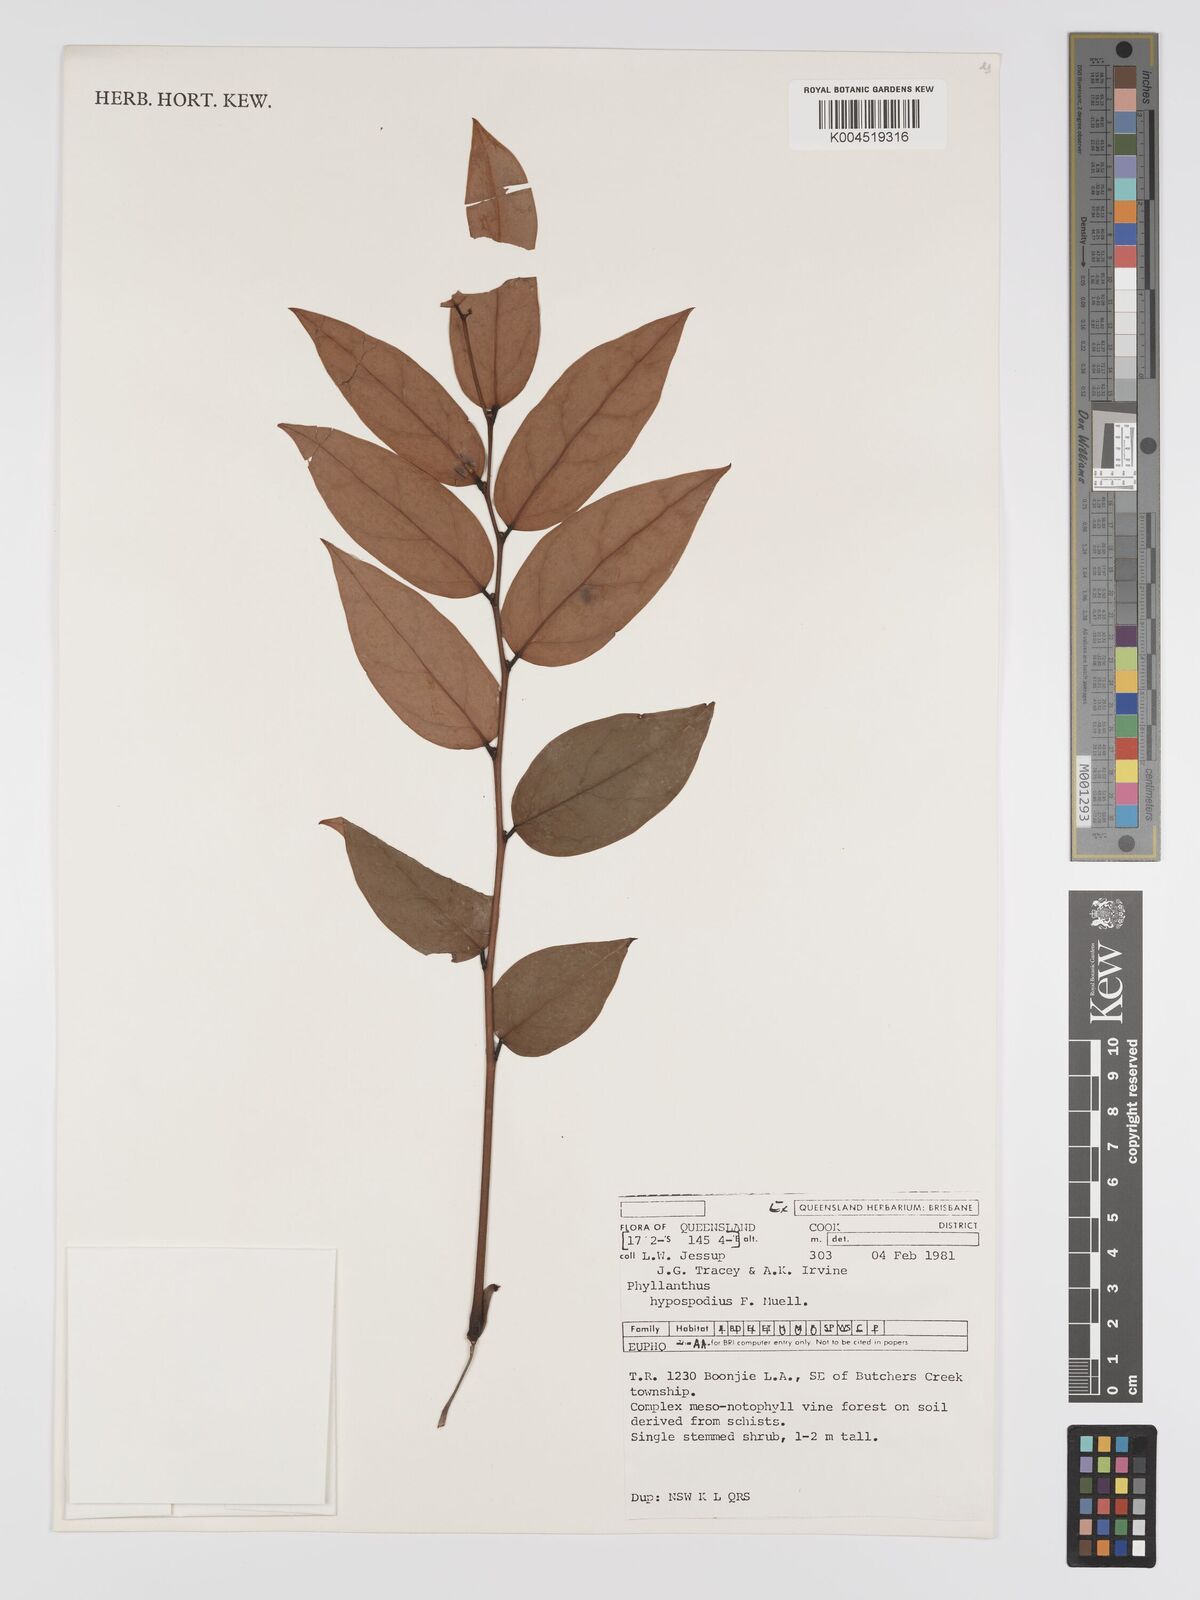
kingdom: Plantae
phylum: Tracheophyta
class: Magnoliopsida
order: Malpighiales
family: Phyllanthaceae
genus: Phyllanthus
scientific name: Phyllanthus hypospodius
